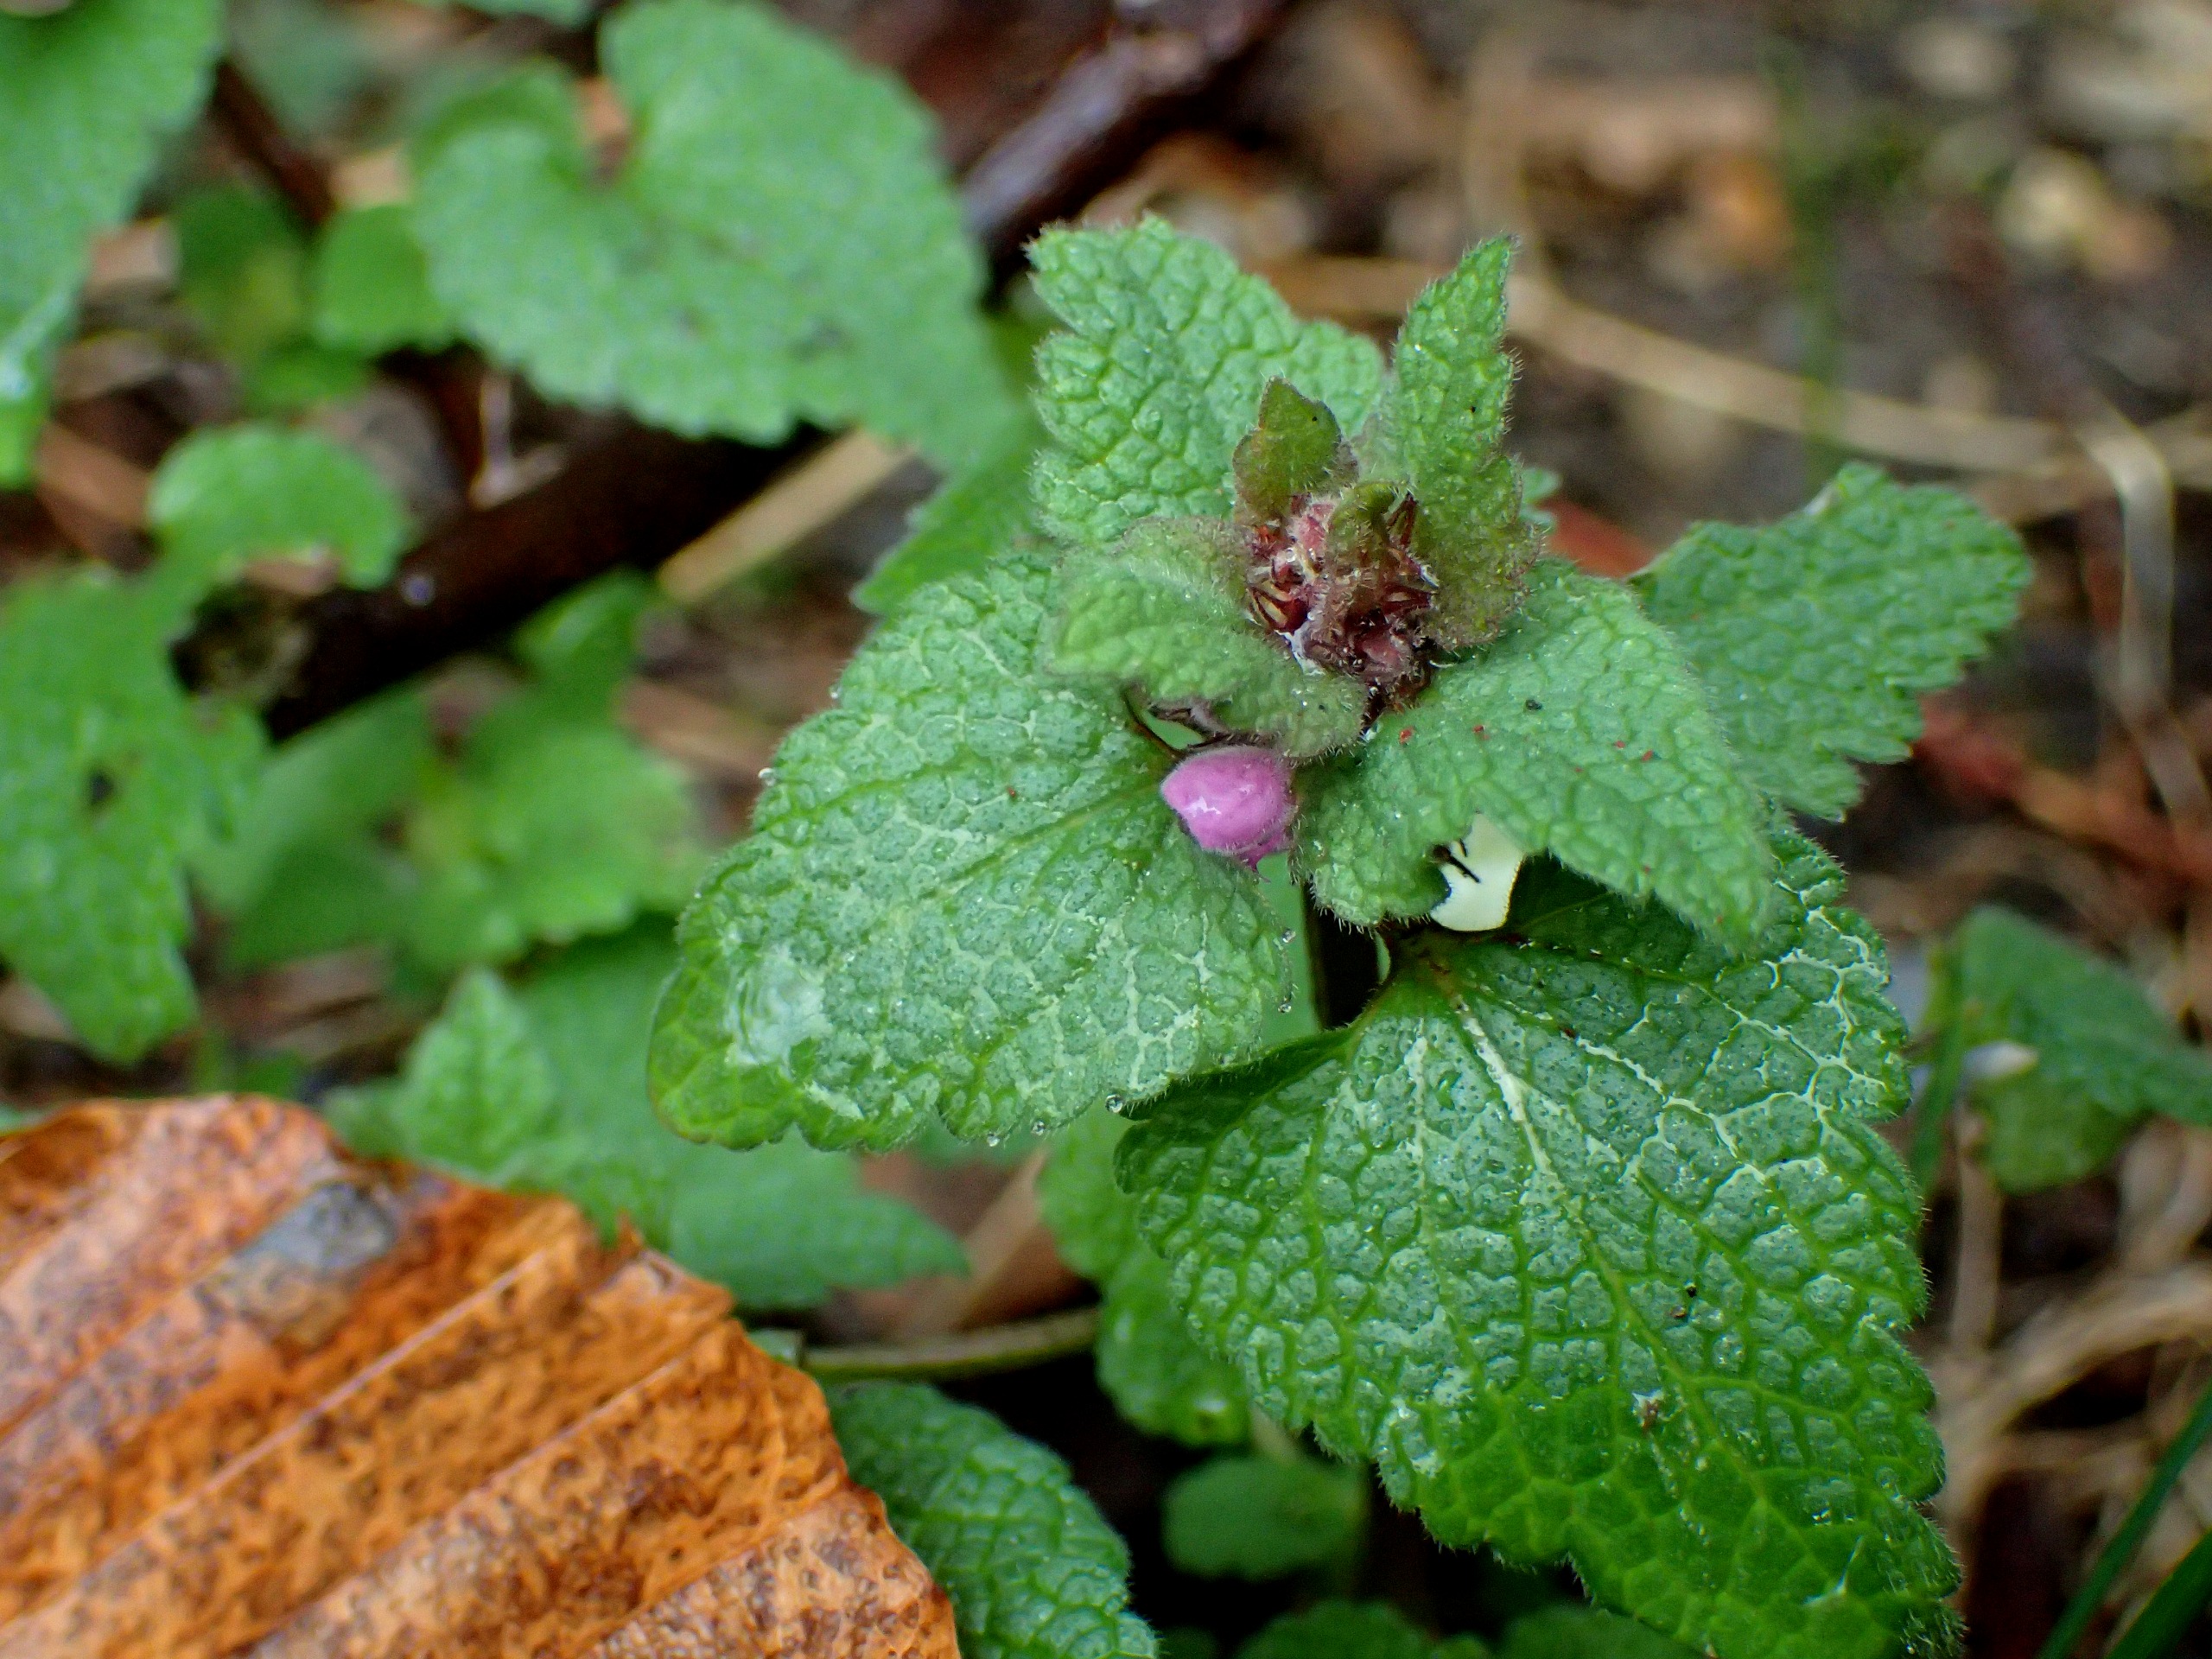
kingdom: Plantae
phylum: Tracheophyta
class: Magnoliopsida
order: Lamiales
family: Lamiaceae
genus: Lamium
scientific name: Lamium purpureum
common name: Rød tvetand
